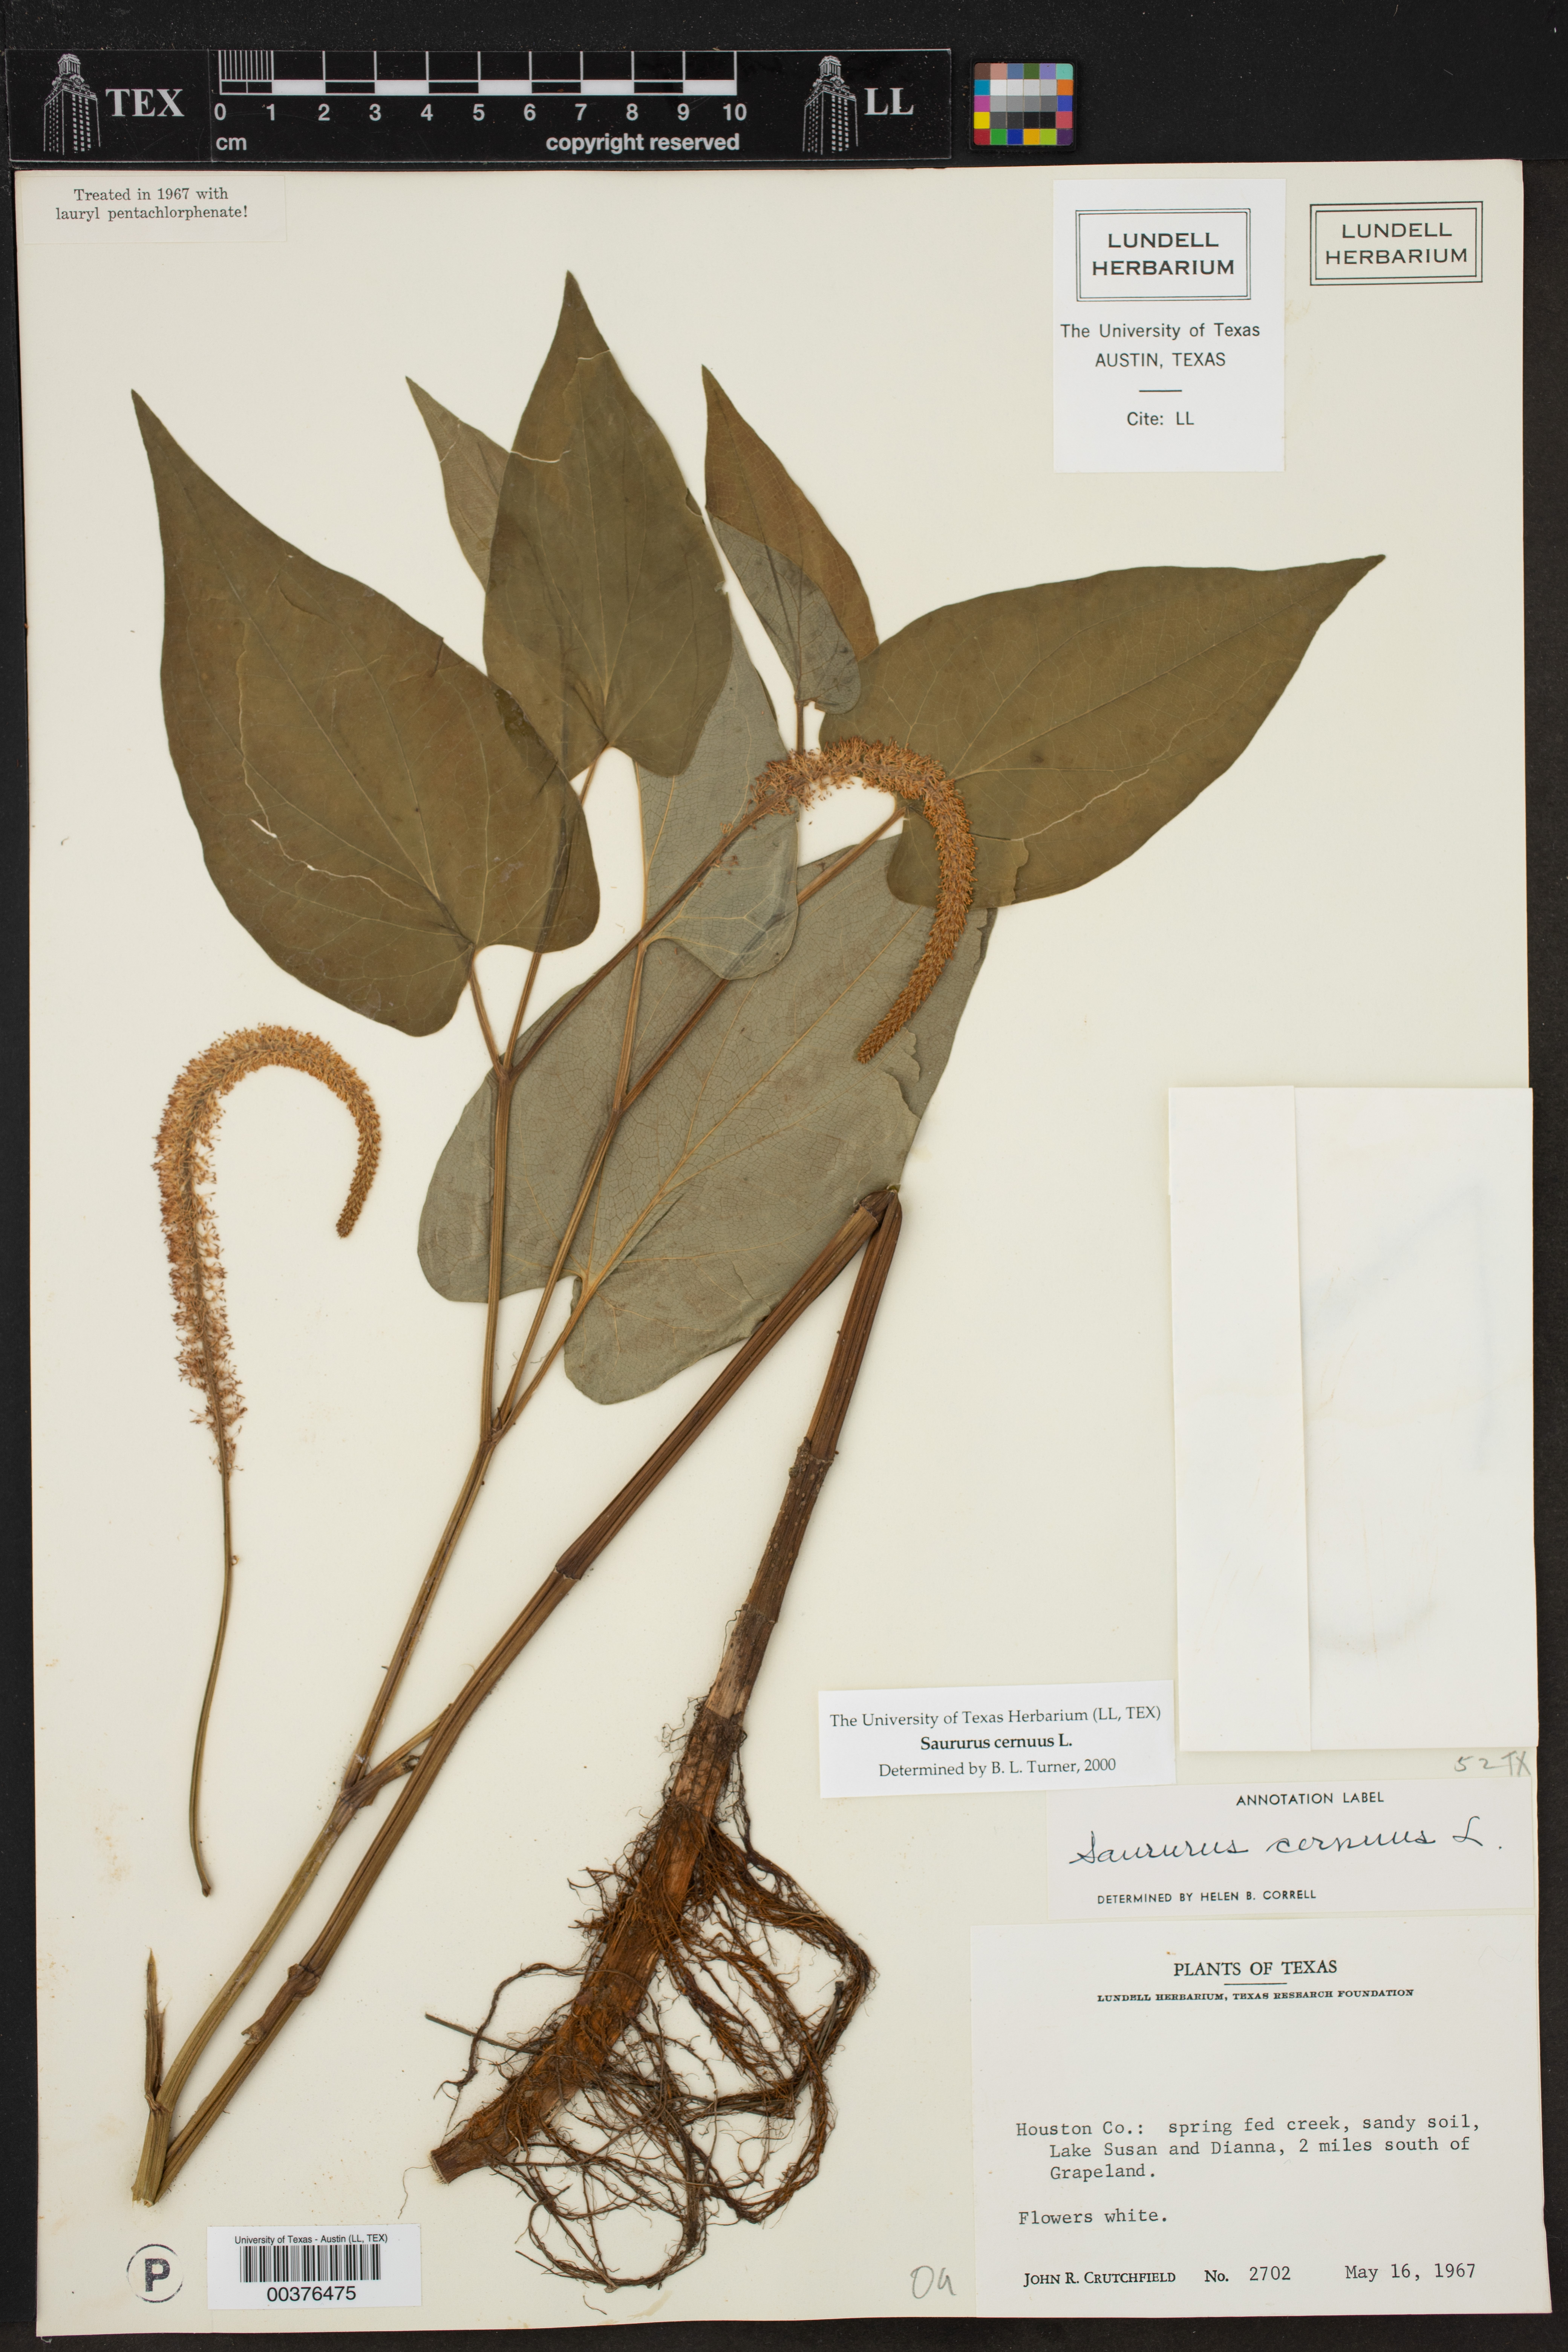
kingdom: Plantae
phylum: Tracheophyta
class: Magnoliopsida
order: Piperales
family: Saururaceae
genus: Saururus
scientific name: Saururus cernuus
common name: Lizard's-tail
